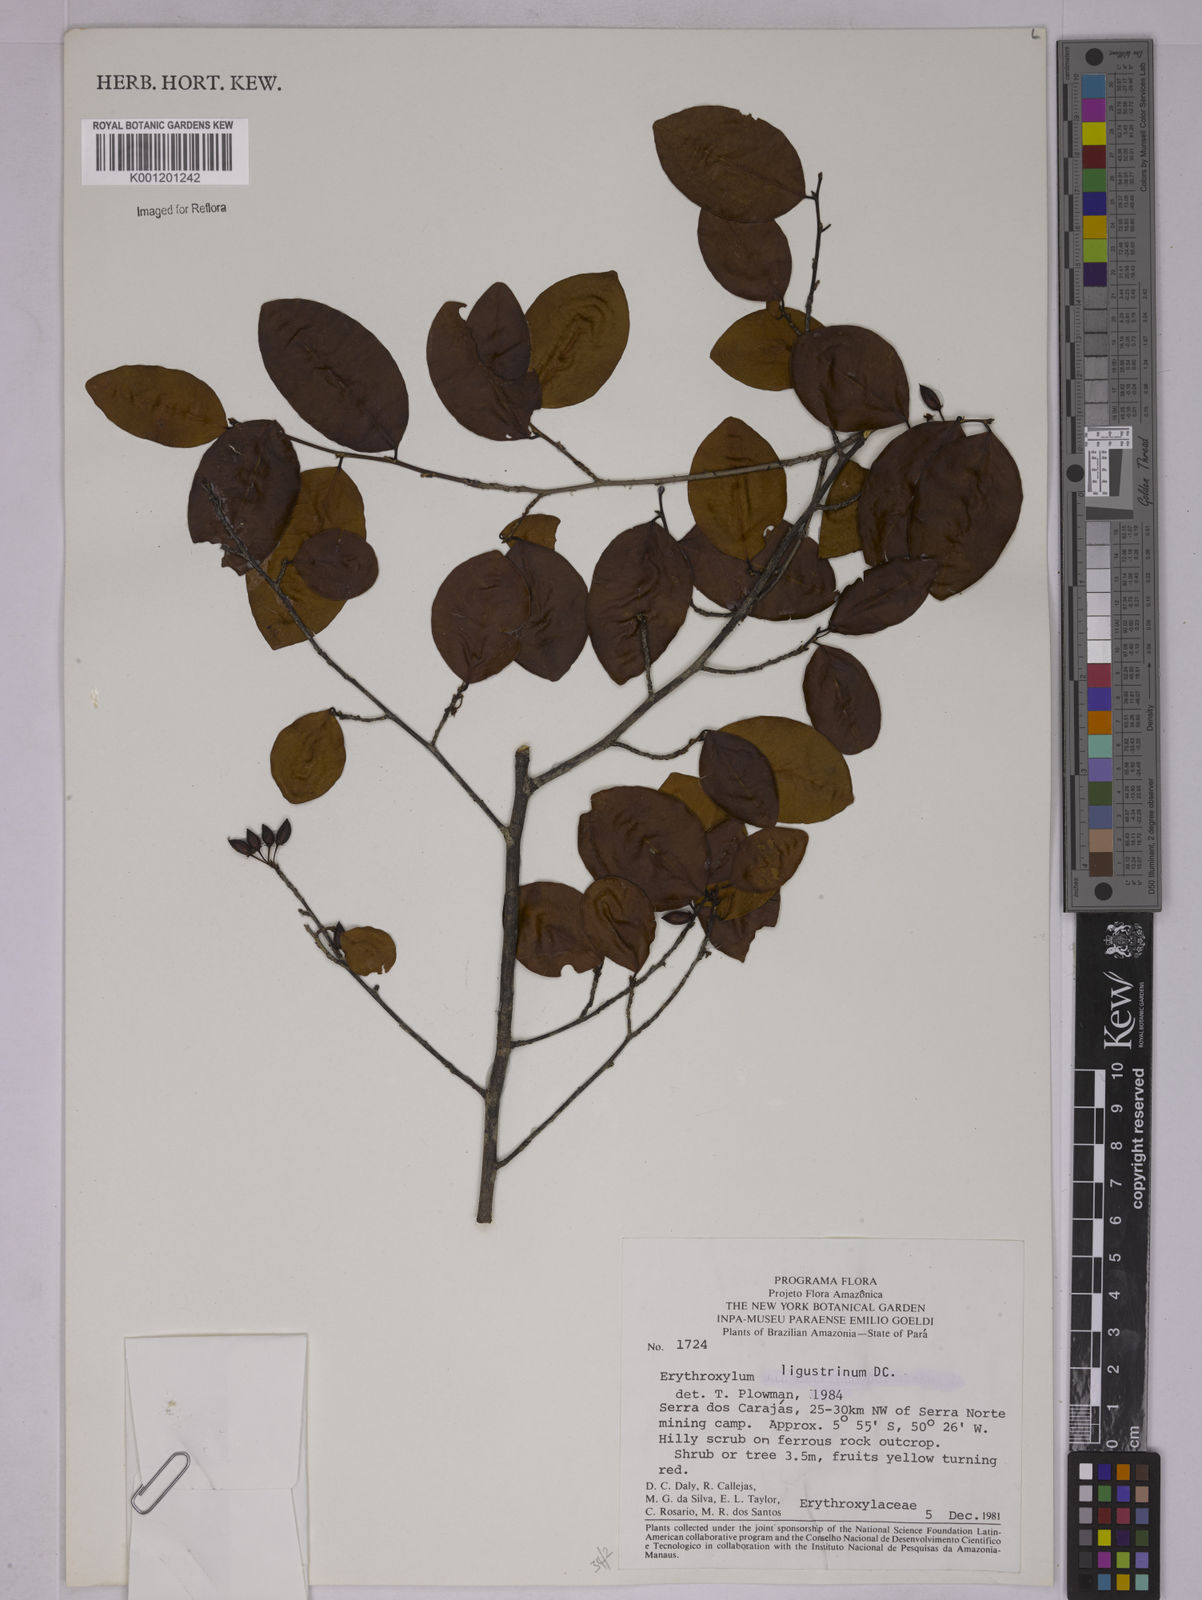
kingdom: Plantae
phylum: Tracheophyta
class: Magnoliopsida
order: Malpighiales
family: Erythroxylaceae
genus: Erythroxylum
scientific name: Erythroxylum carajasense
